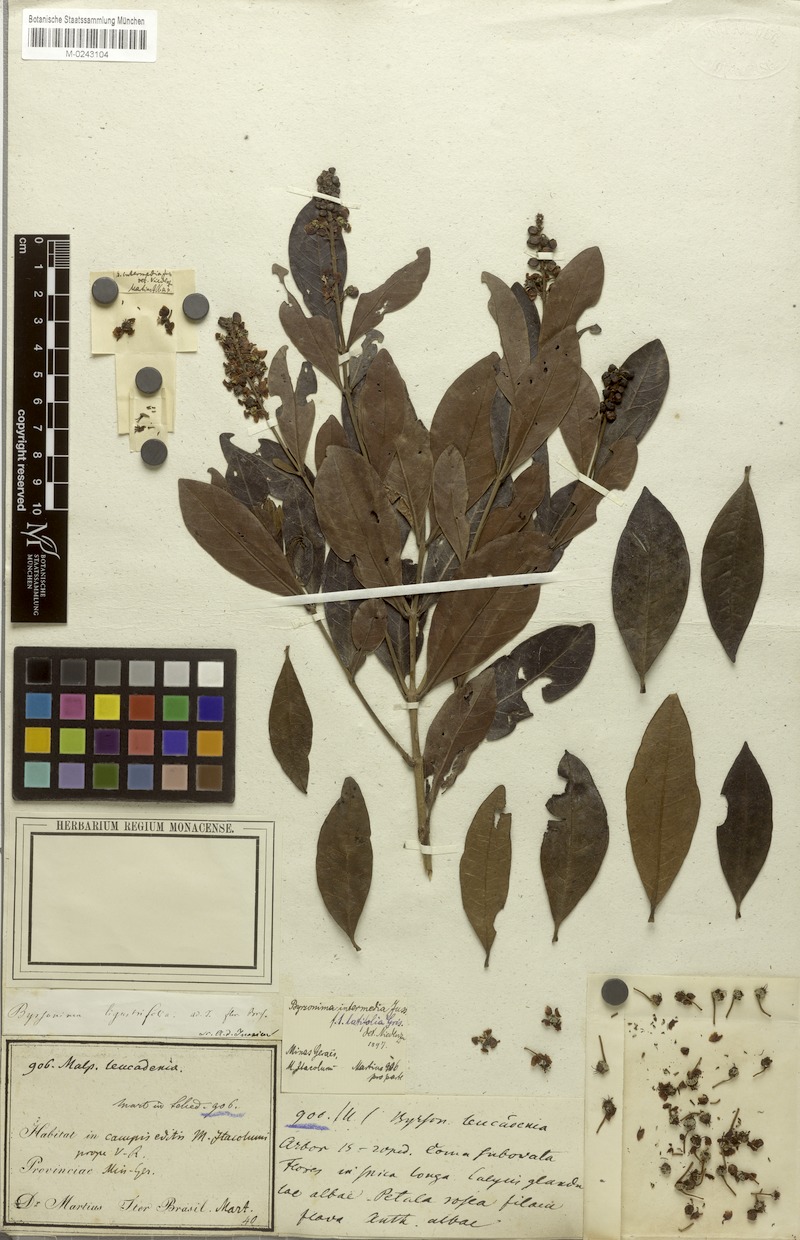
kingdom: Plantae
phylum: Tracheophyta
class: Magnoliopsida
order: Malpighiales
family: Malpighiaceae
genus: Byrsonima
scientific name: Byrsonima intermedia
